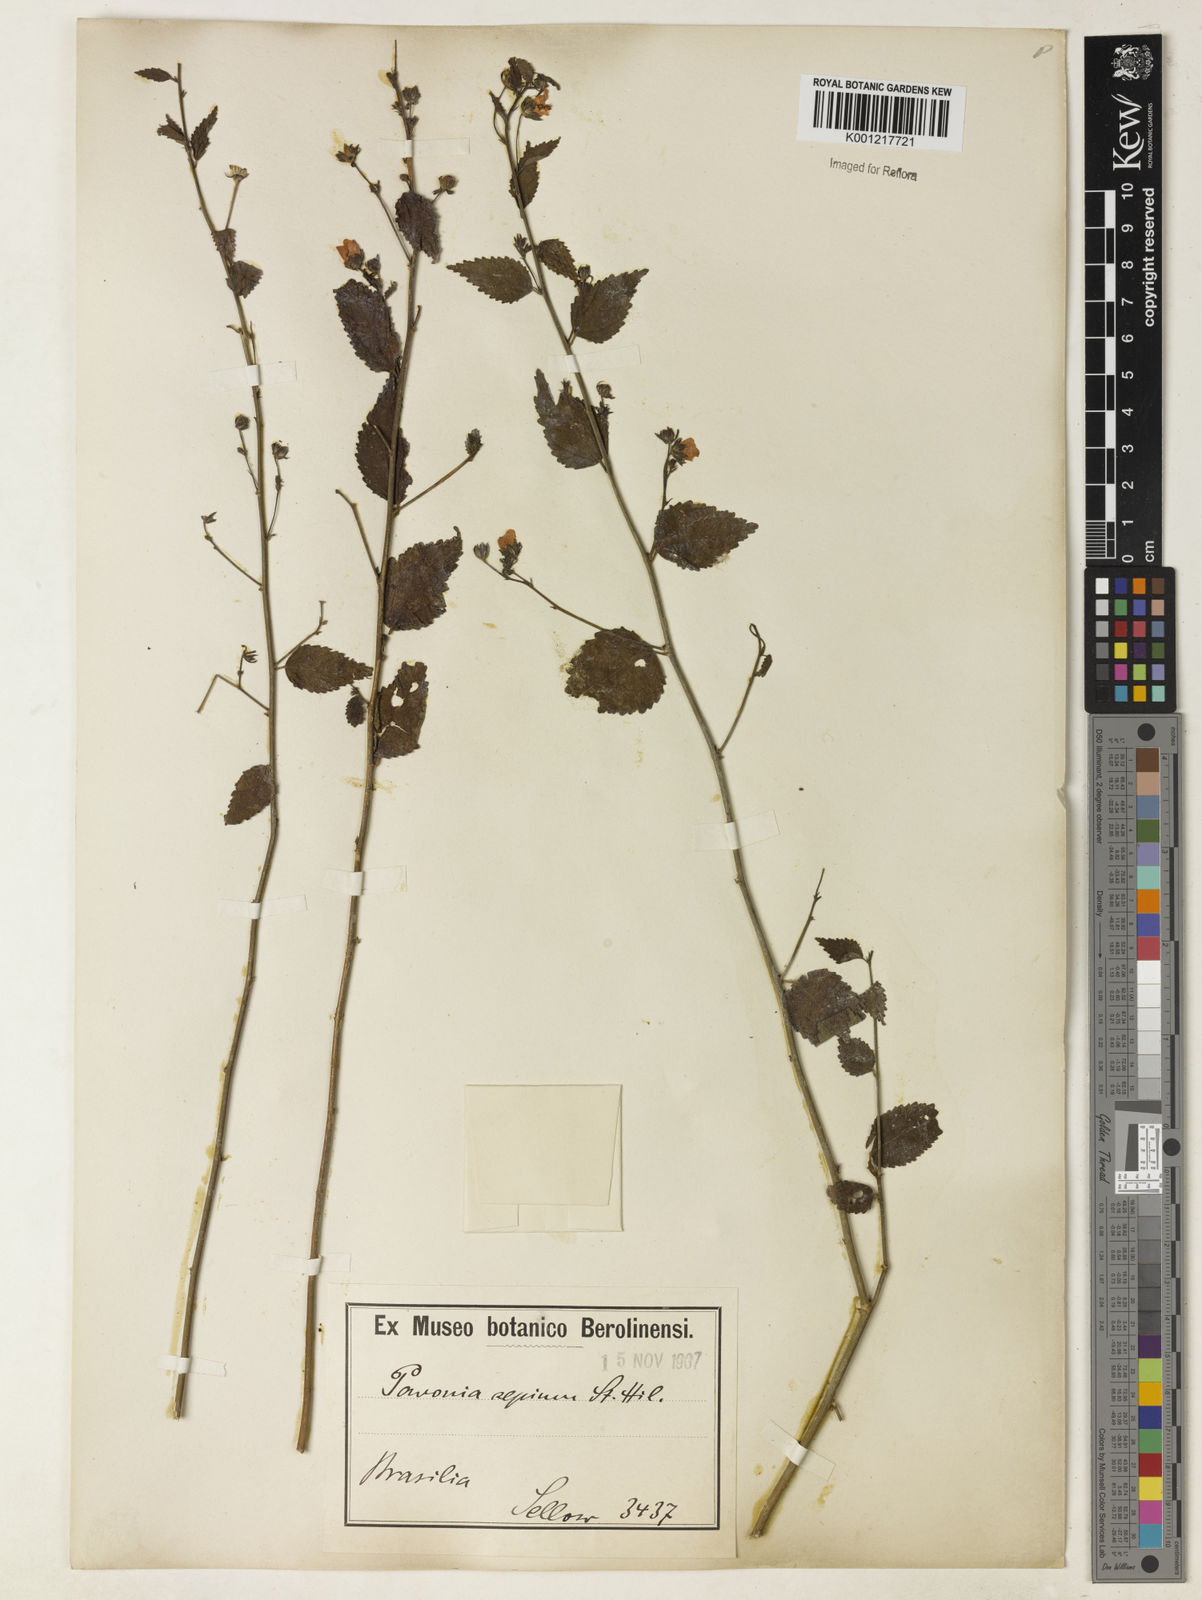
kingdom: Plantae
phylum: Tracheophyta
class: Magnoliopsida
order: Malvales
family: Malvaceae
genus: Pavonia
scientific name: Pavonia sepium
